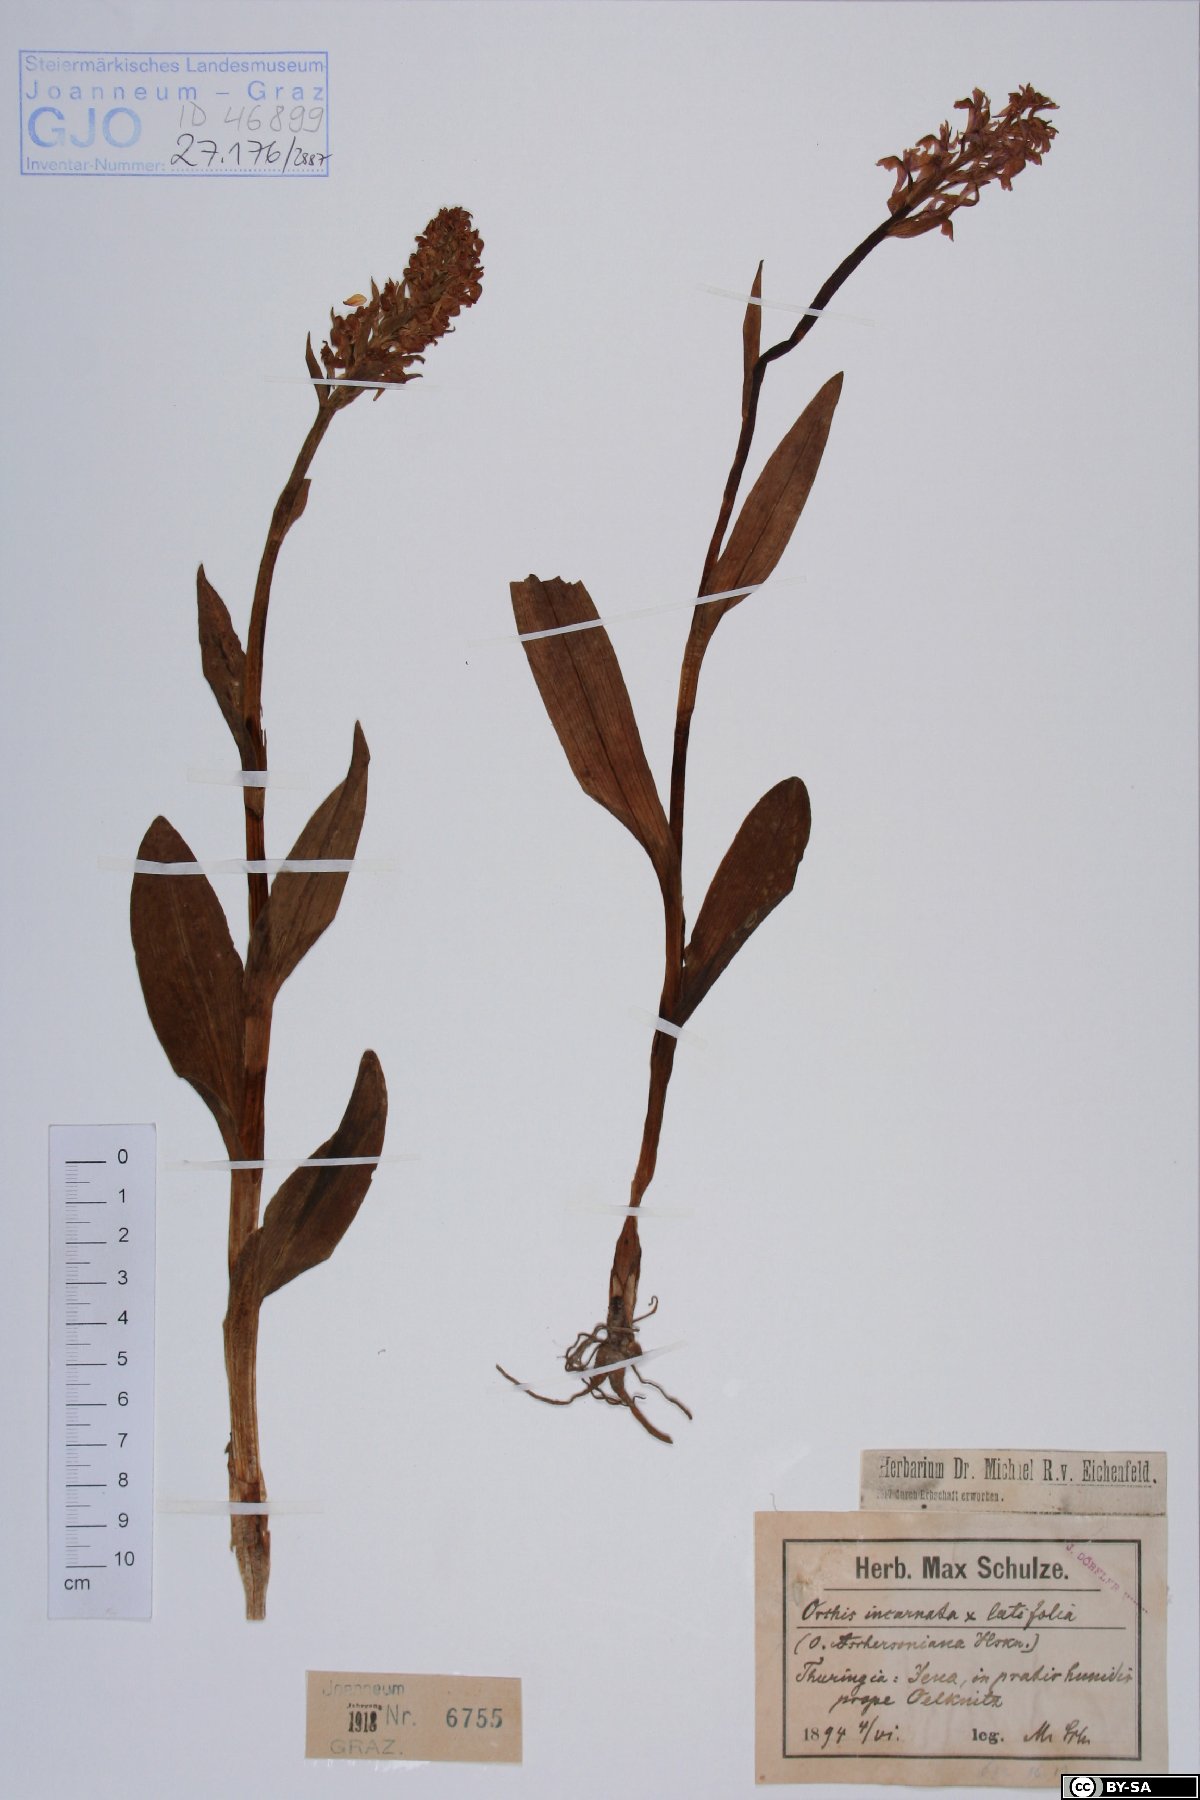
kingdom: Plantae
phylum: Tracheophyta
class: Liliopsida
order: Asparagales
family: Orchidaceae
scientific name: Orchidaceae
